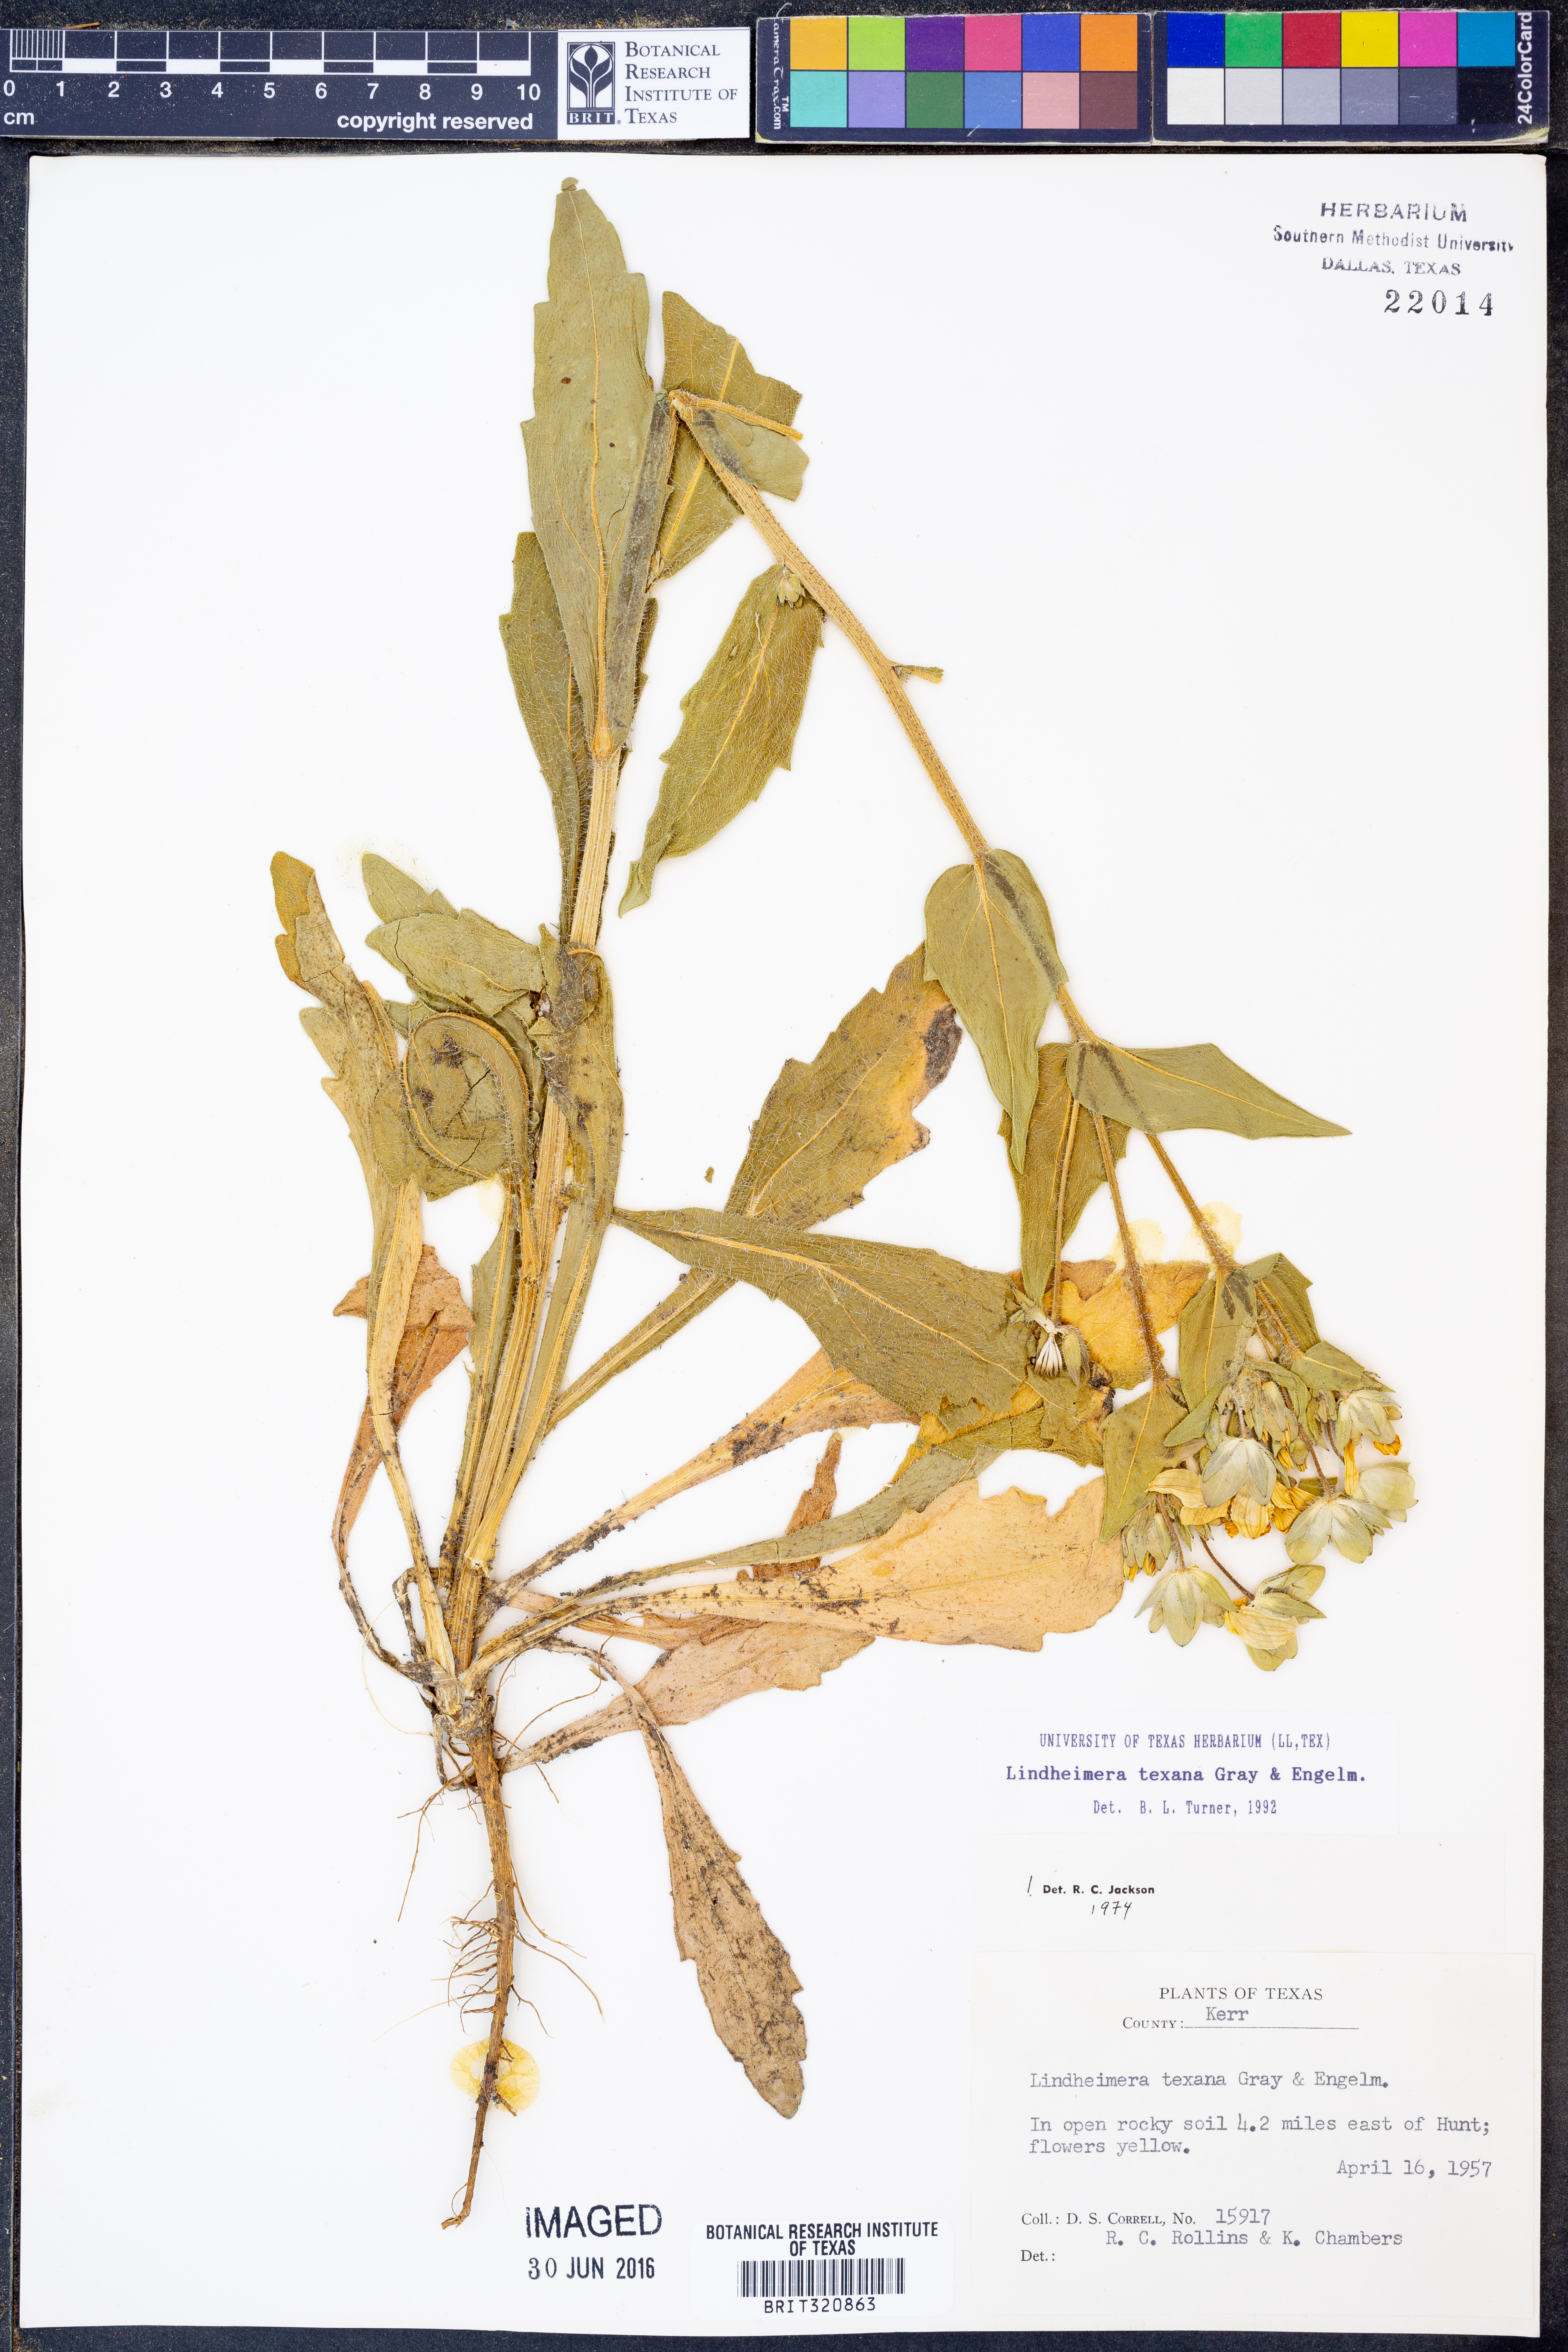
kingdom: Plantae
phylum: Tracheophyta
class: Magnoliopsida
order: Asterales
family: Asteraceae
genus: Lindheimera
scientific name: Lindheimera texana
